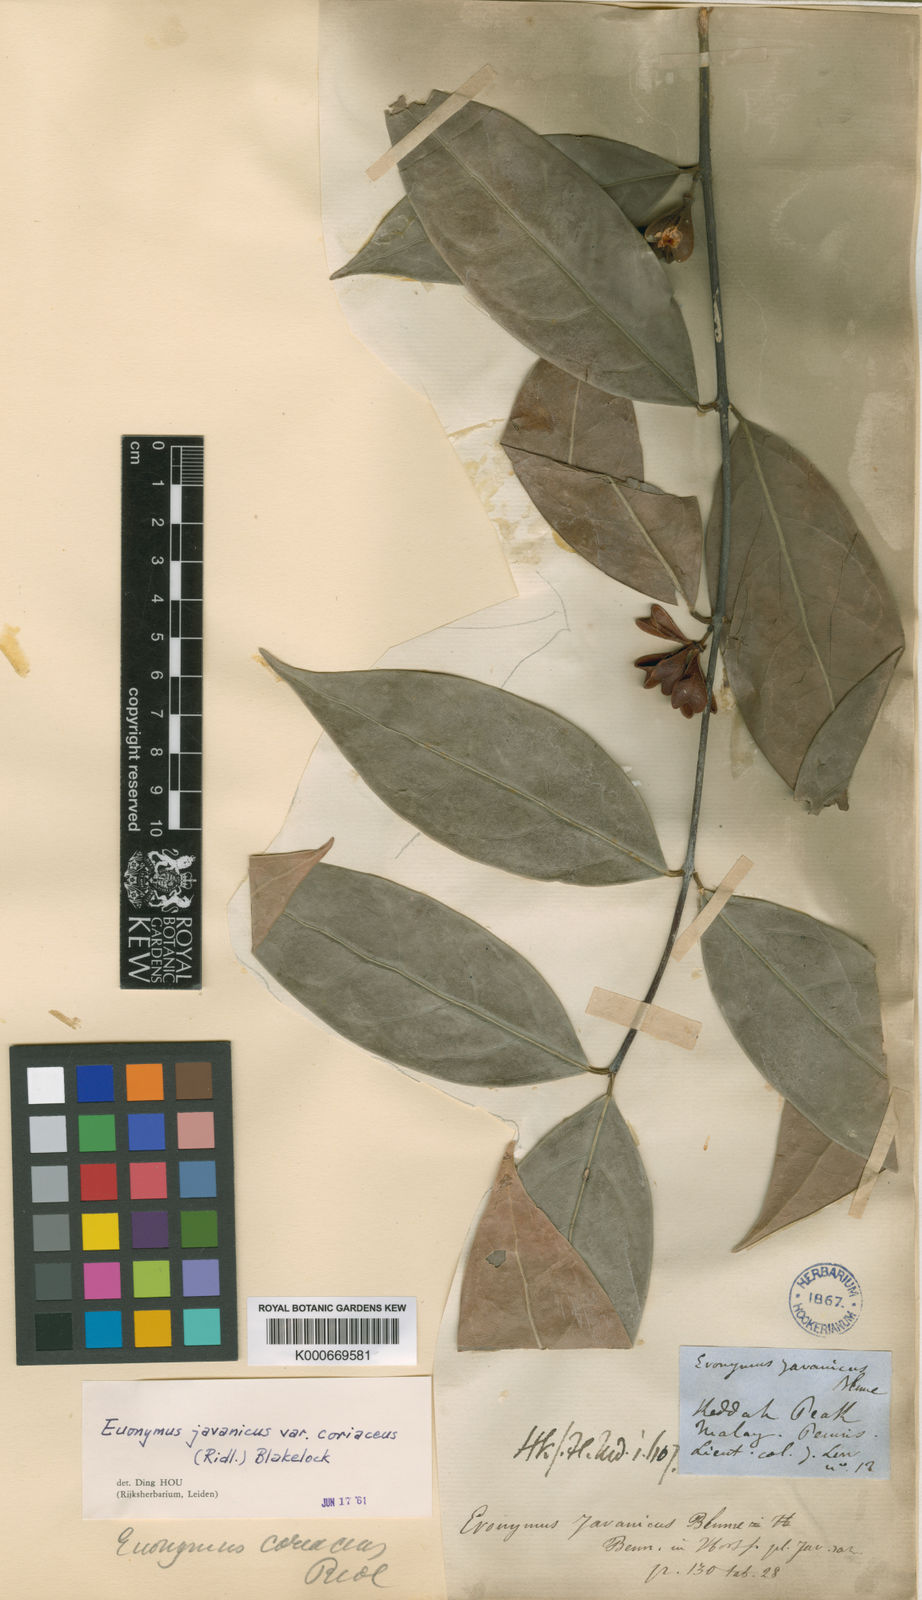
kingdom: Plantae
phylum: Tracheophyta
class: Magnoliopsida
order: Celastrales
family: Celastraceae
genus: Euonymus
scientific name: Euonymus indicus
